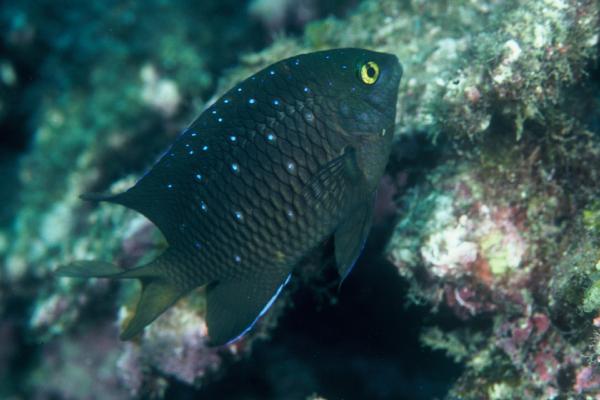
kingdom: Animalia
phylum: Chordata
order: Perciformes
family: Pomacentridae
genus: Plectroglyphidodon
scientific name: Plectroglyphidodon lacrymatus
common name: Jewel damsel
